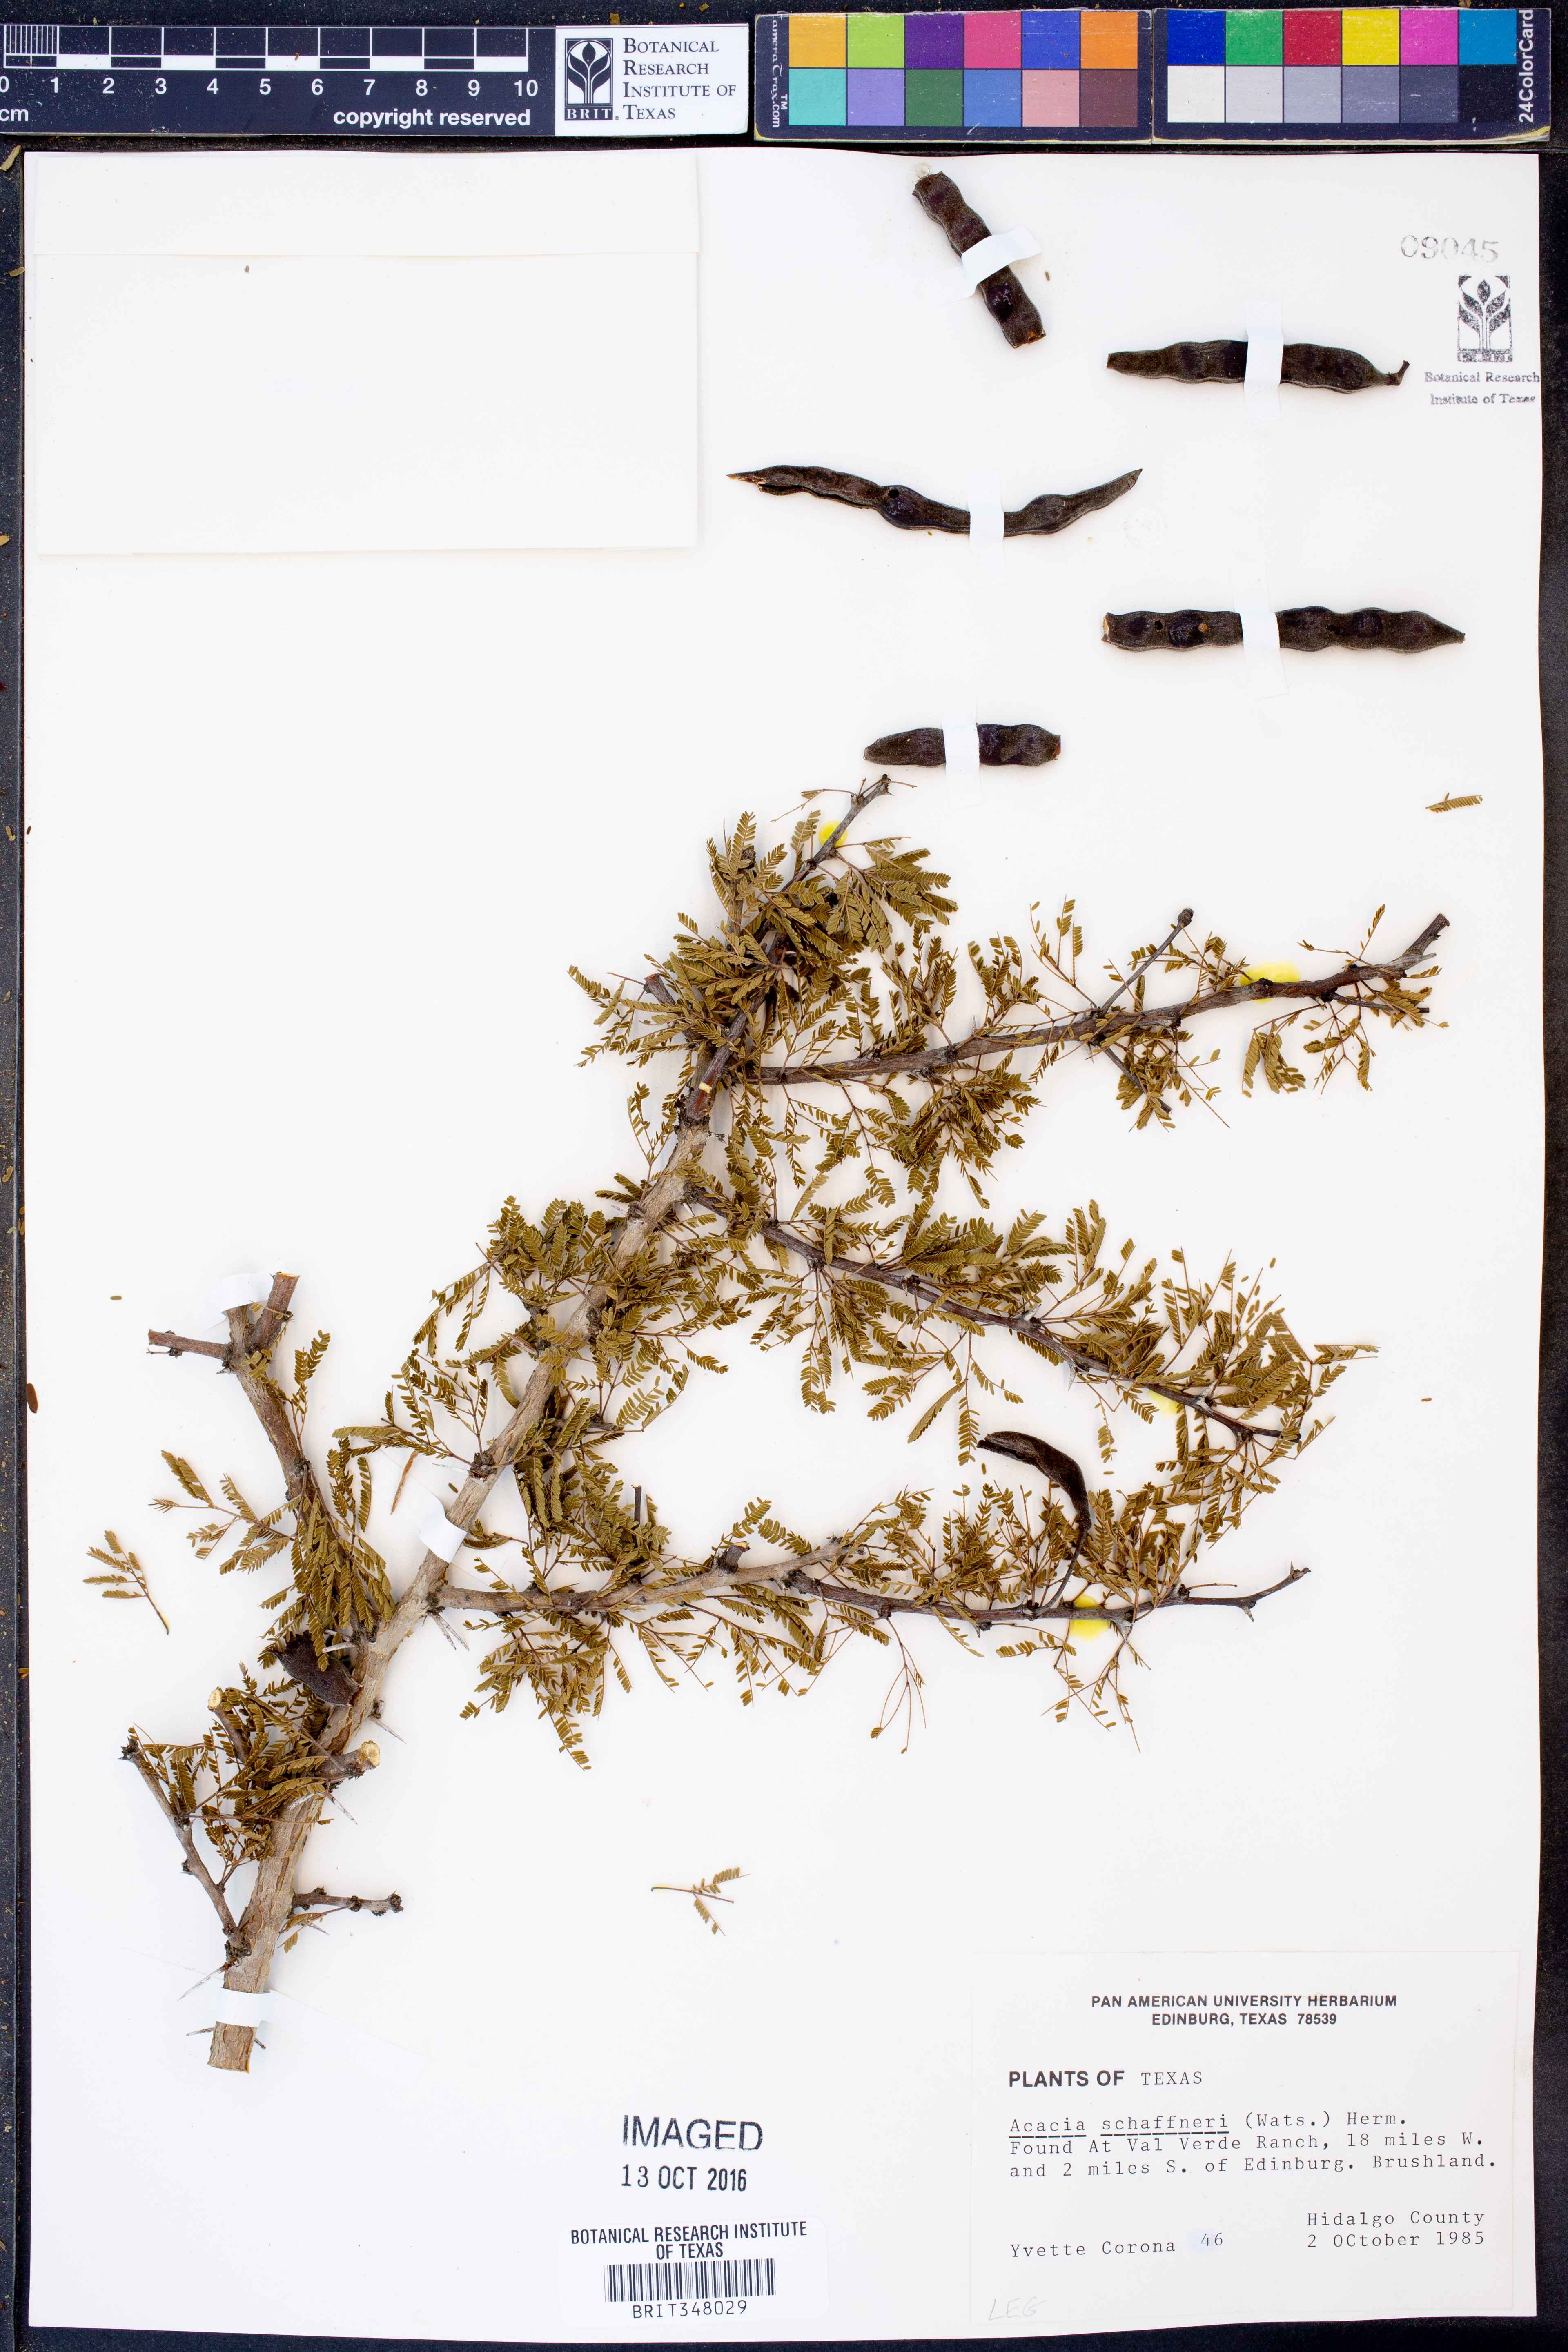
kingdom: Plantae
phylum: Tracheophyta
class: Magnoliopsida
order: Fabales
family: Fabaceae
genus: Vachellia
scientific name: Vachellia schaffneri
